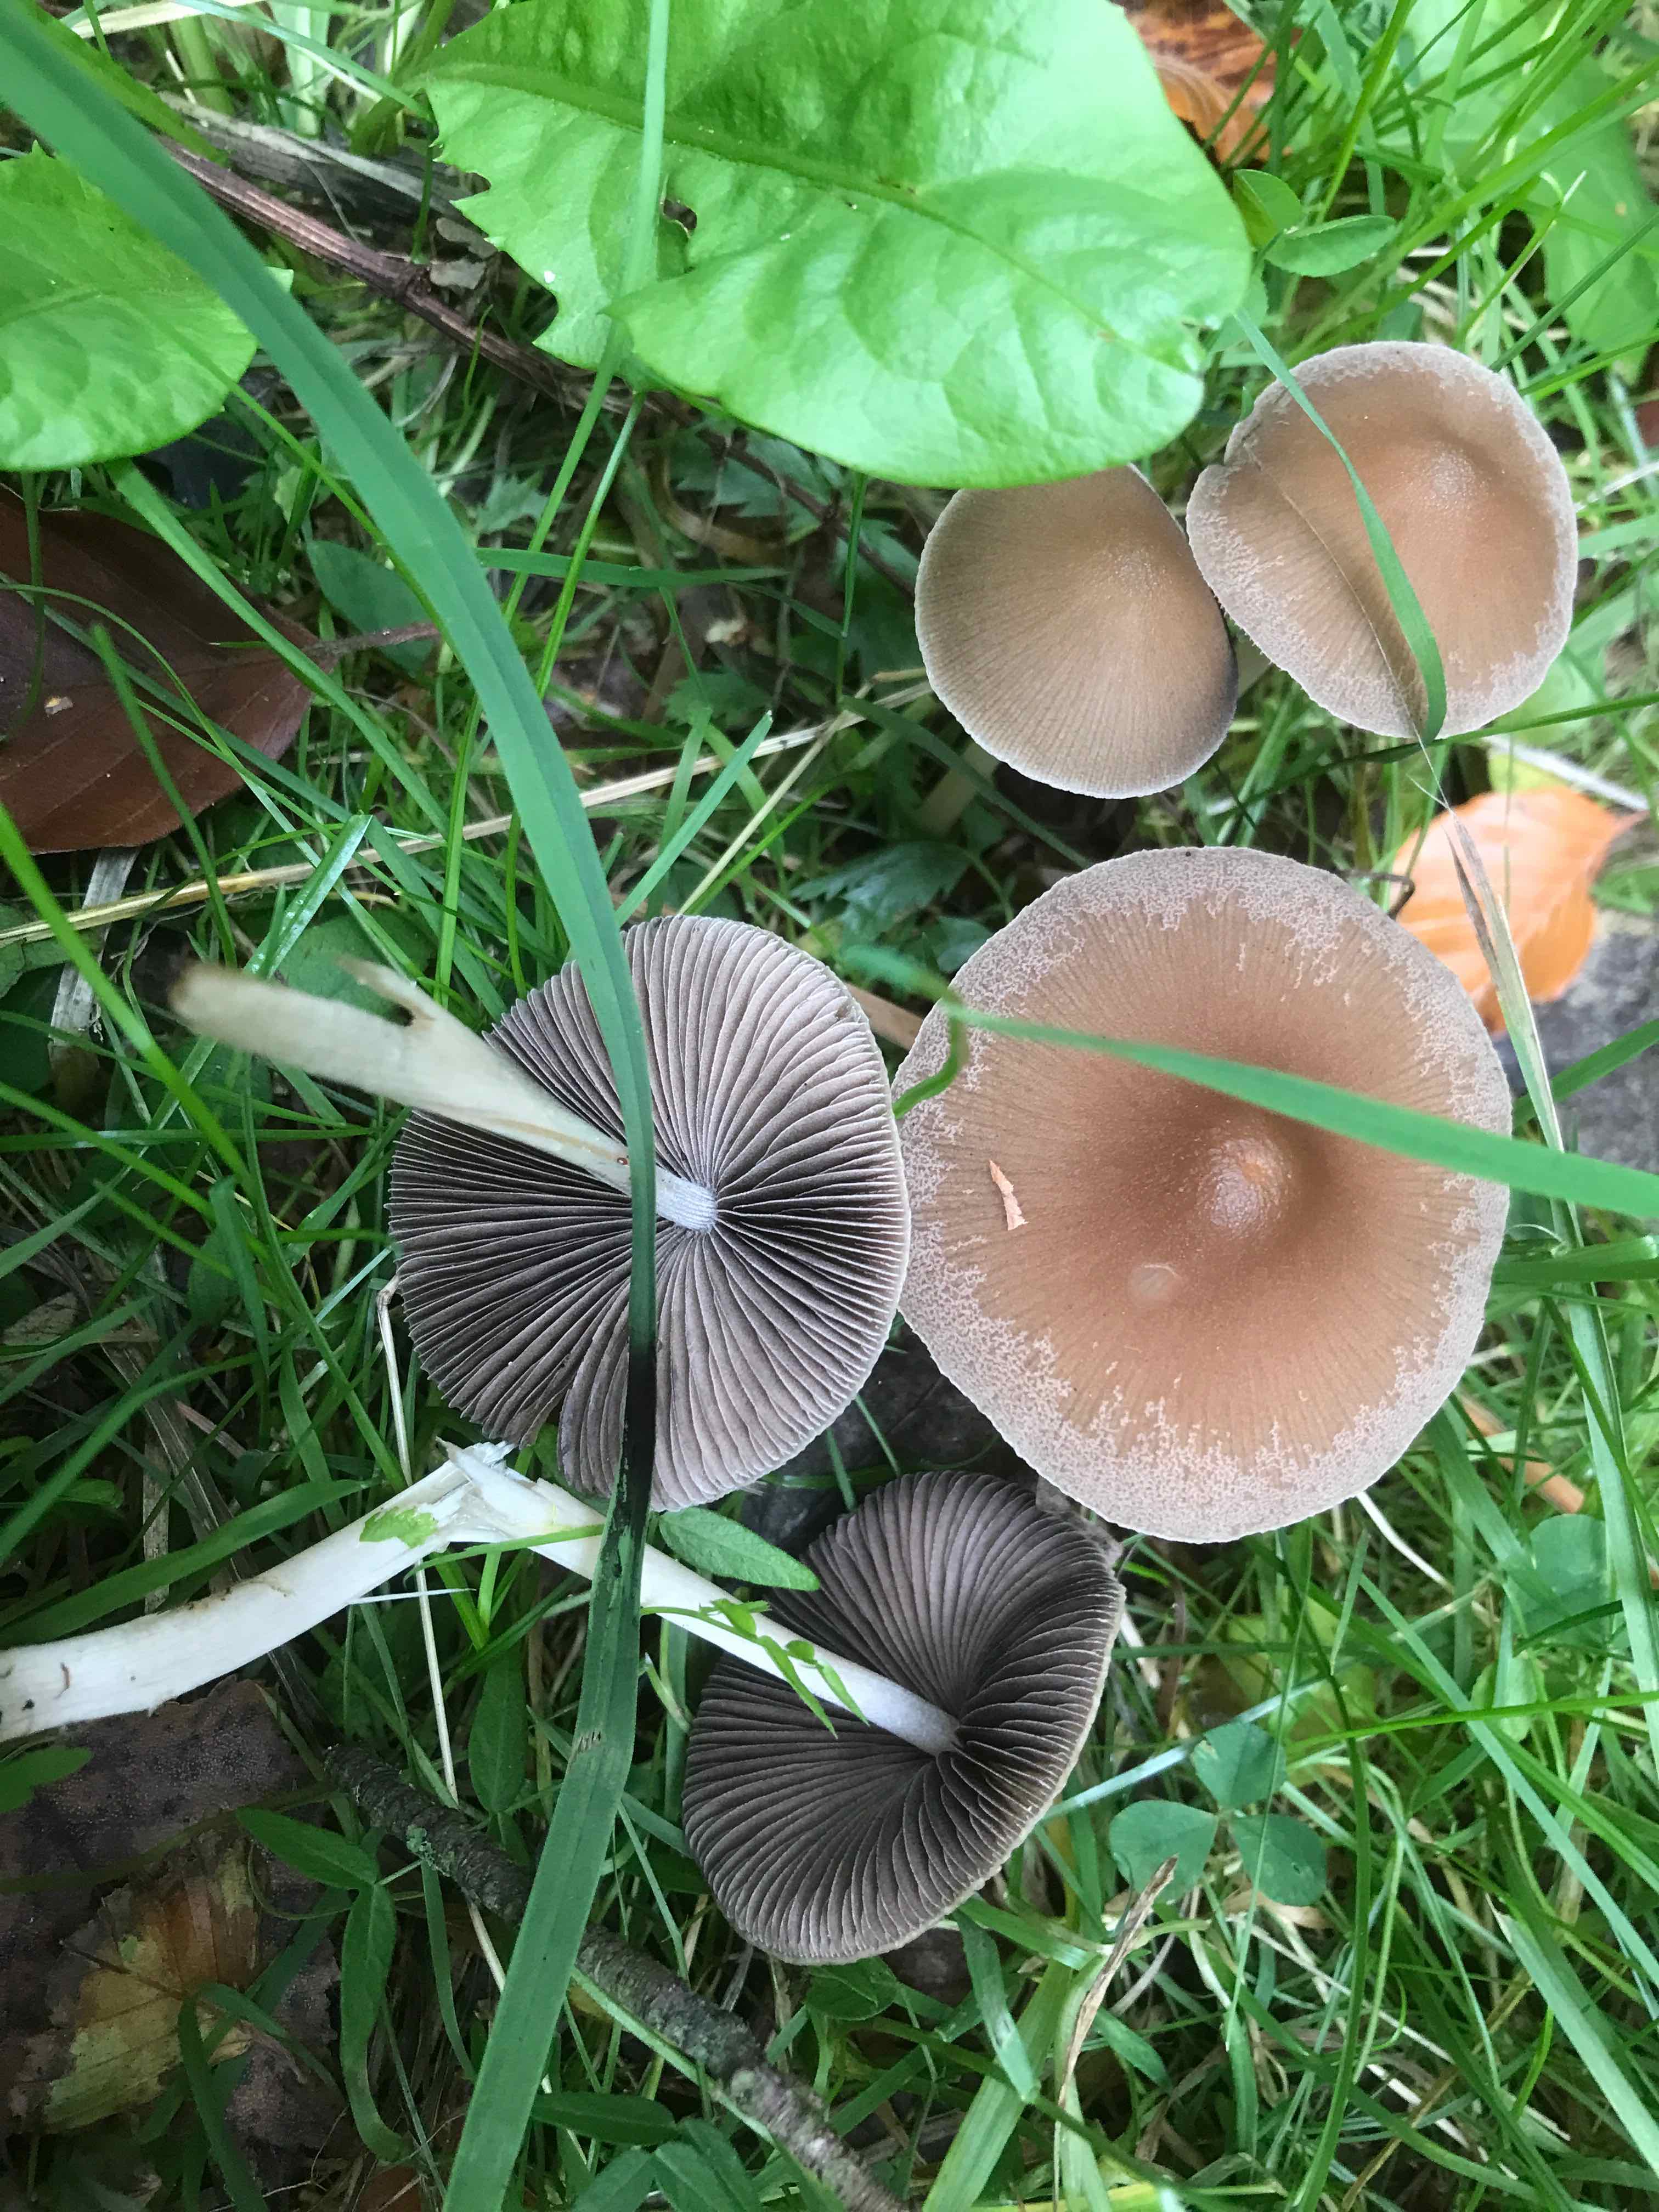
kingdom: Fungi
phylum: Basidiomycota
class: Agaricomycetes
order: Agaricales
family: Psathyrellaceae
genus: Psathyrella
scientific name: Psathyrella
